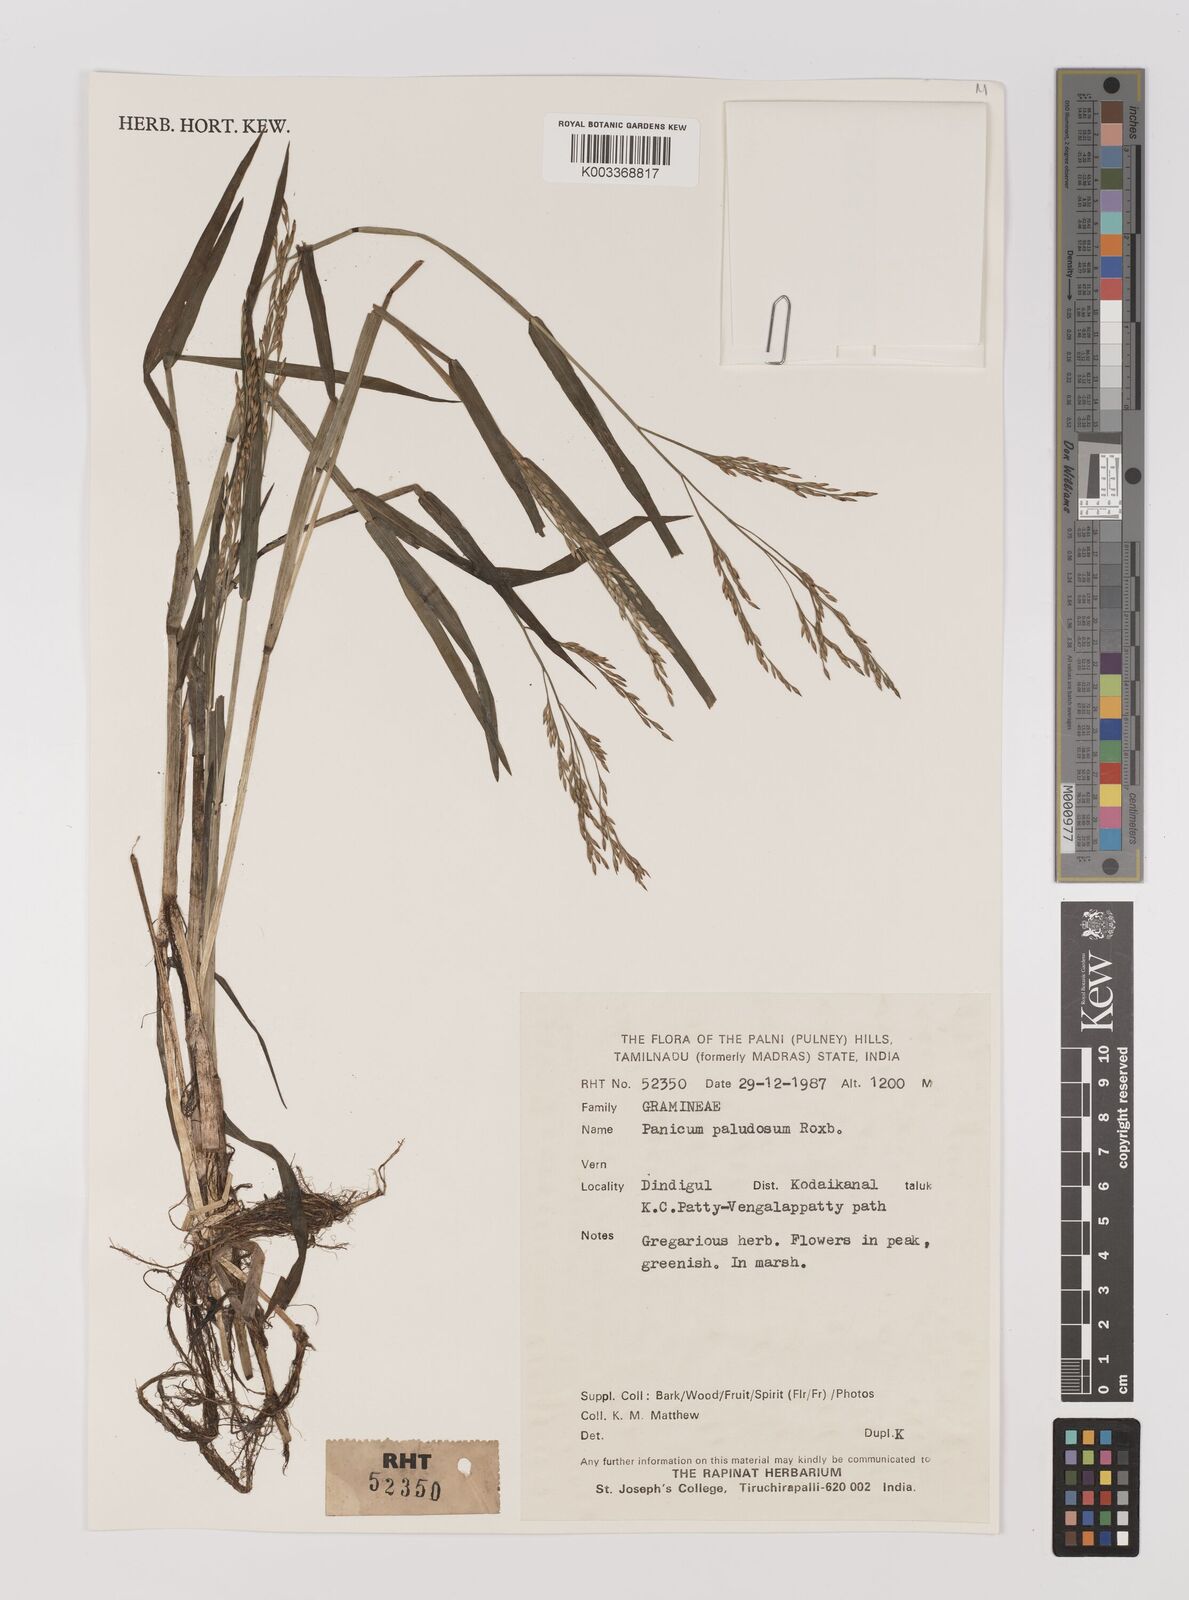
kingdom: Plantae
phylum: Tracheophyta
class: Liliopsida
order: Poales
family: Poaceae
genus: Louisiella
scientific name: Louisiella paludosa
